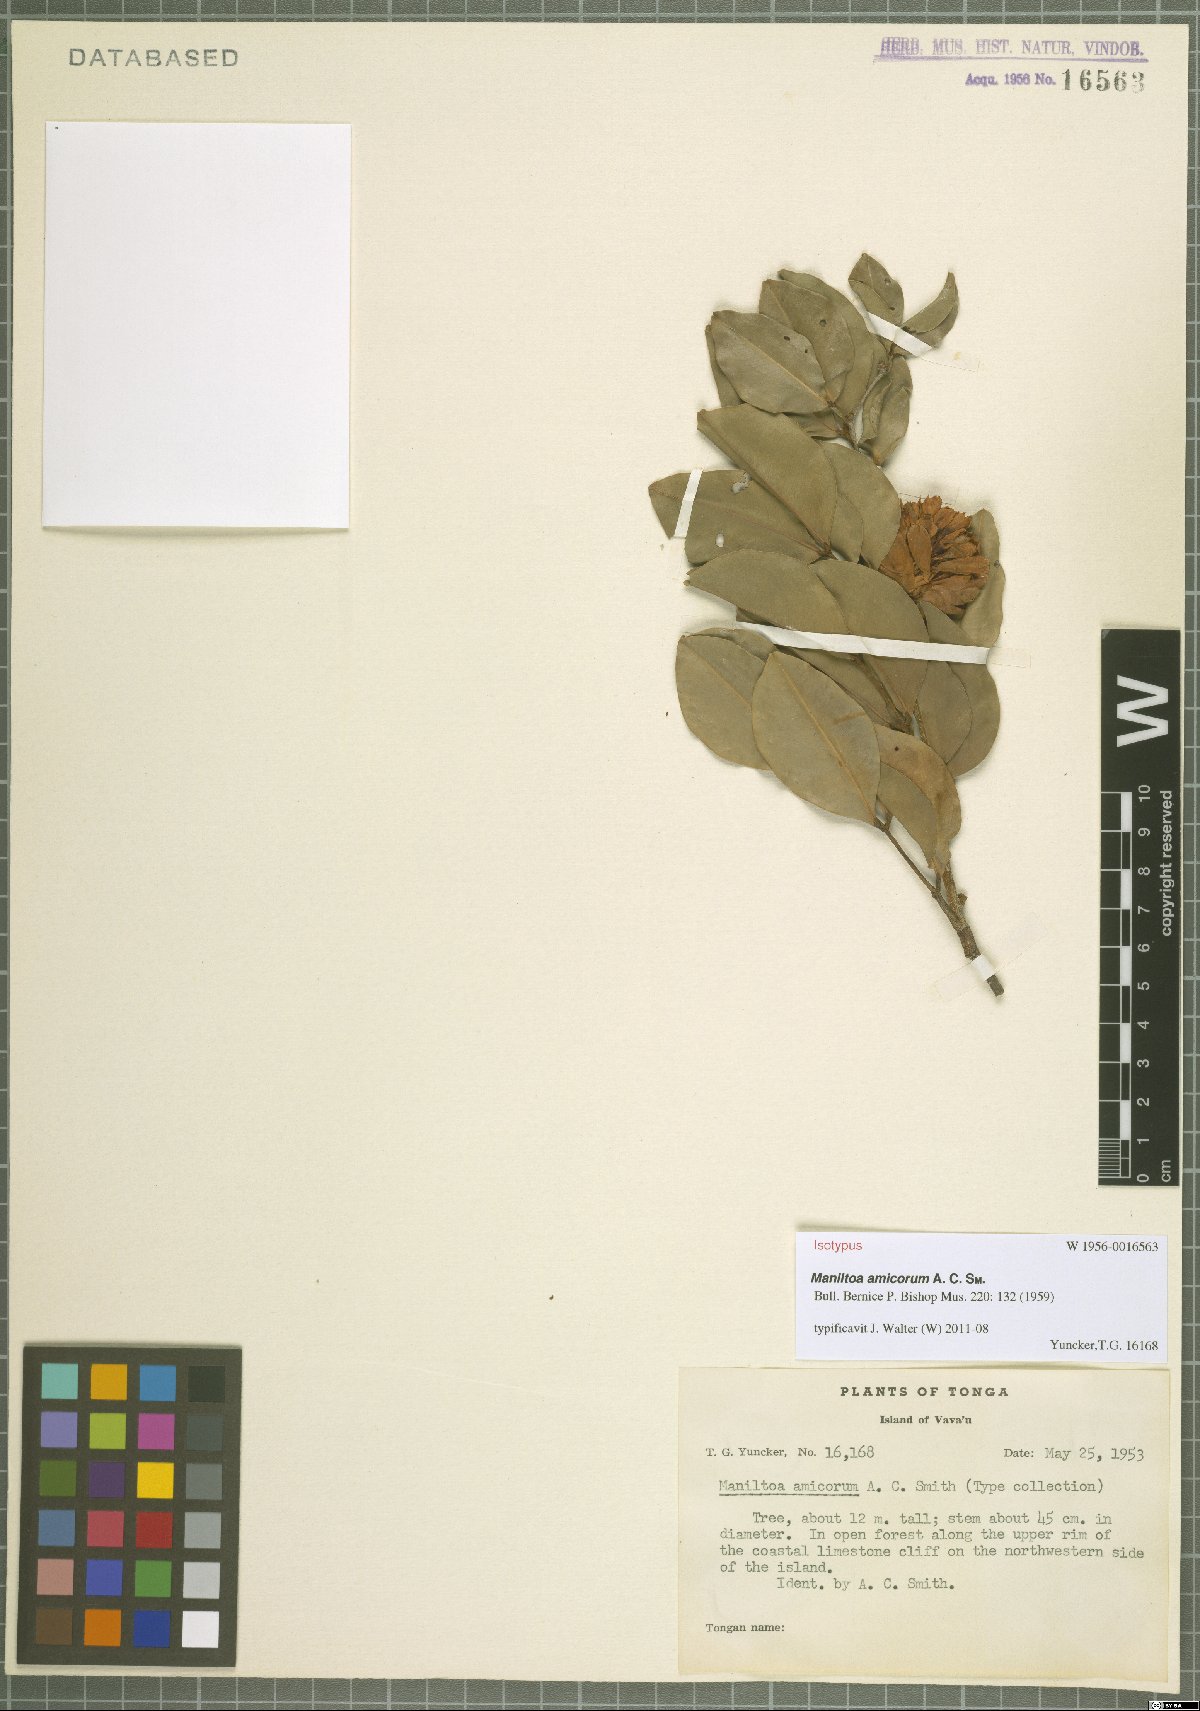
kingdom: Plantae
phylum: Tracheophyta
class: Magnoliopsida
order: Fabales
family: Fabaceae
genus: Cynometra
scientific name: Cynometra grandiflora
